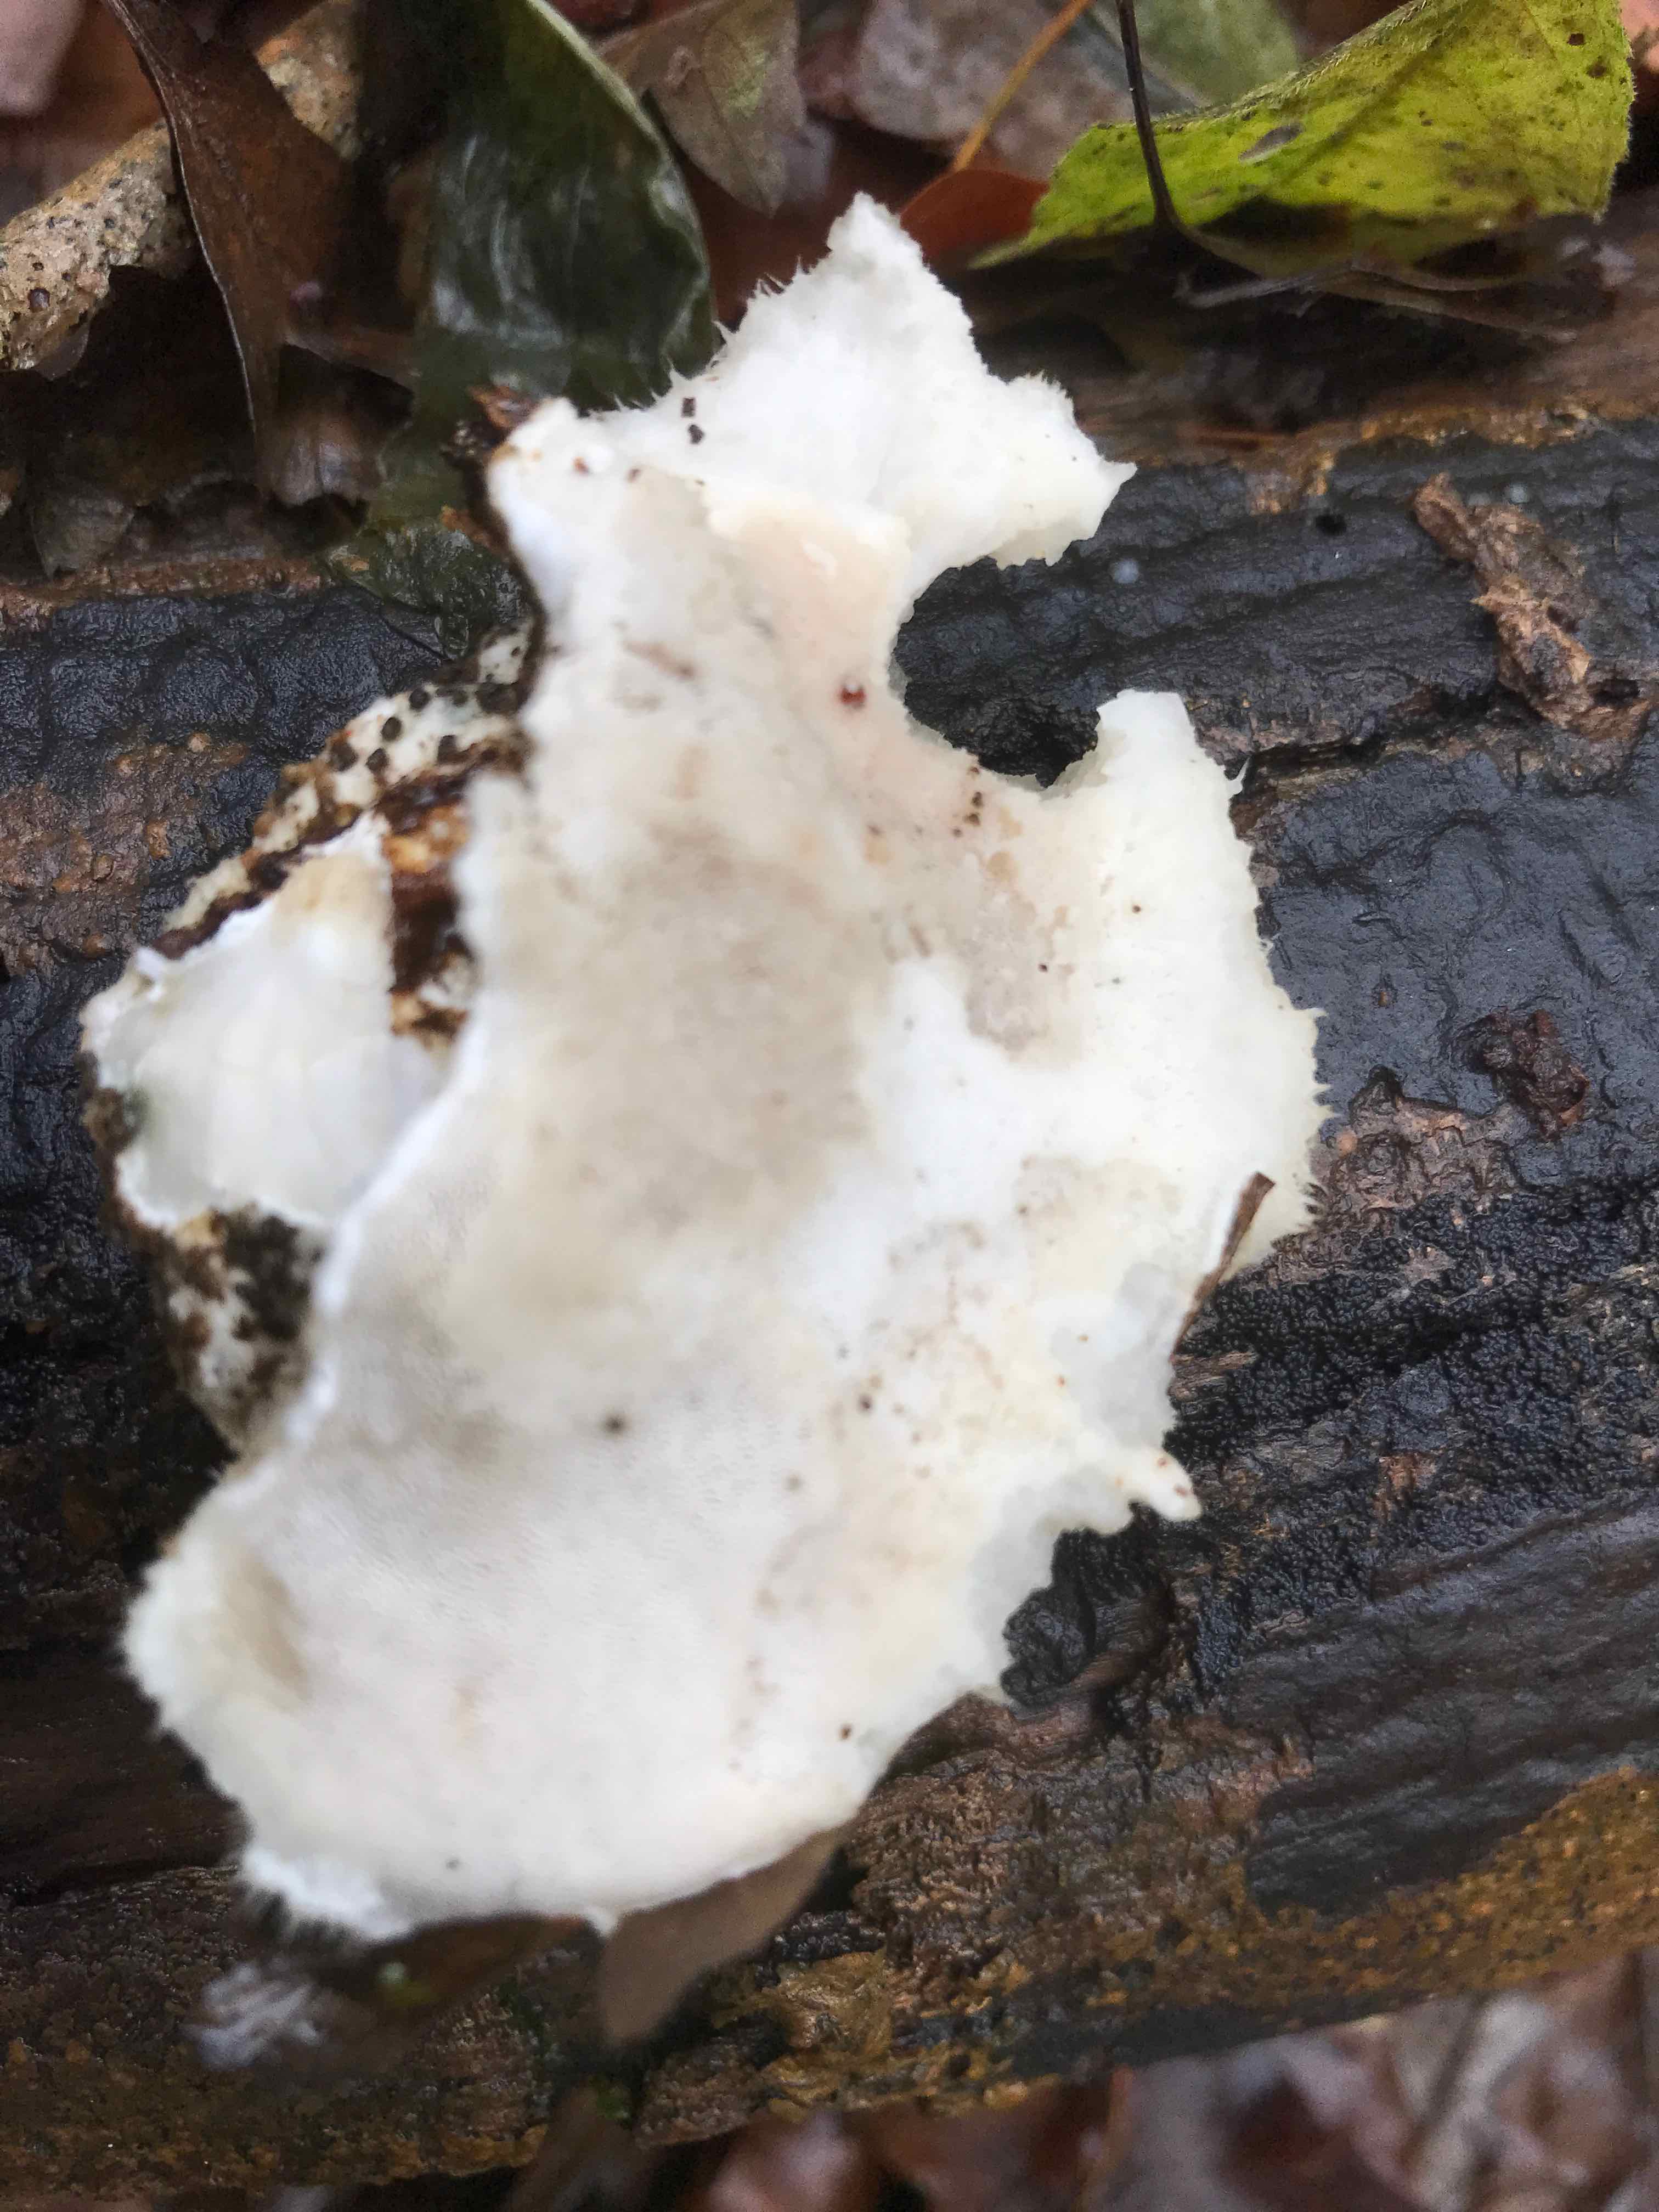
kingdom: Fungi
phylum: Basidiomycota
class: Agaricomycetes
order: Polyporales
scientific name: Polyporales
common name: poresvampordenen
